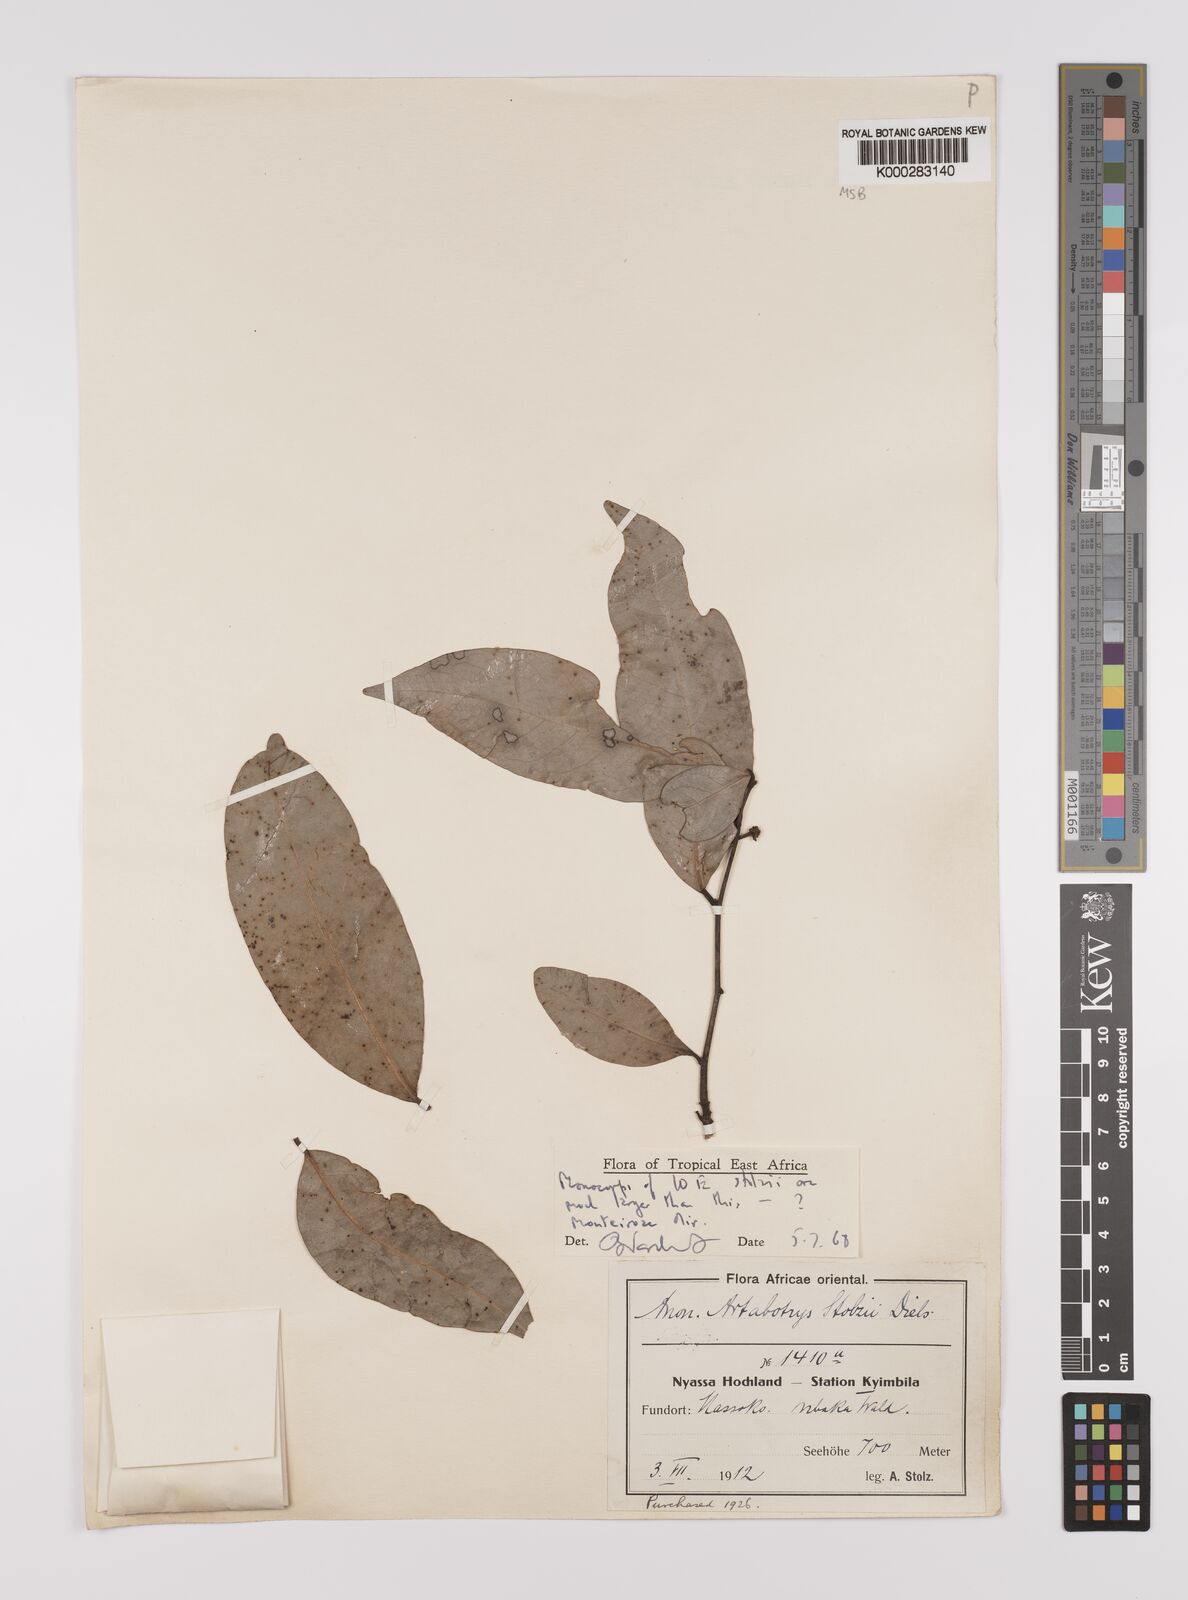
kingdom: Plantae
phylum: Tracheophyta
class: Magnoliopsida
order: Magnoliales
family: Annonaceae
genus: Artabotrys
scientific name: Artabotrys stolzii
